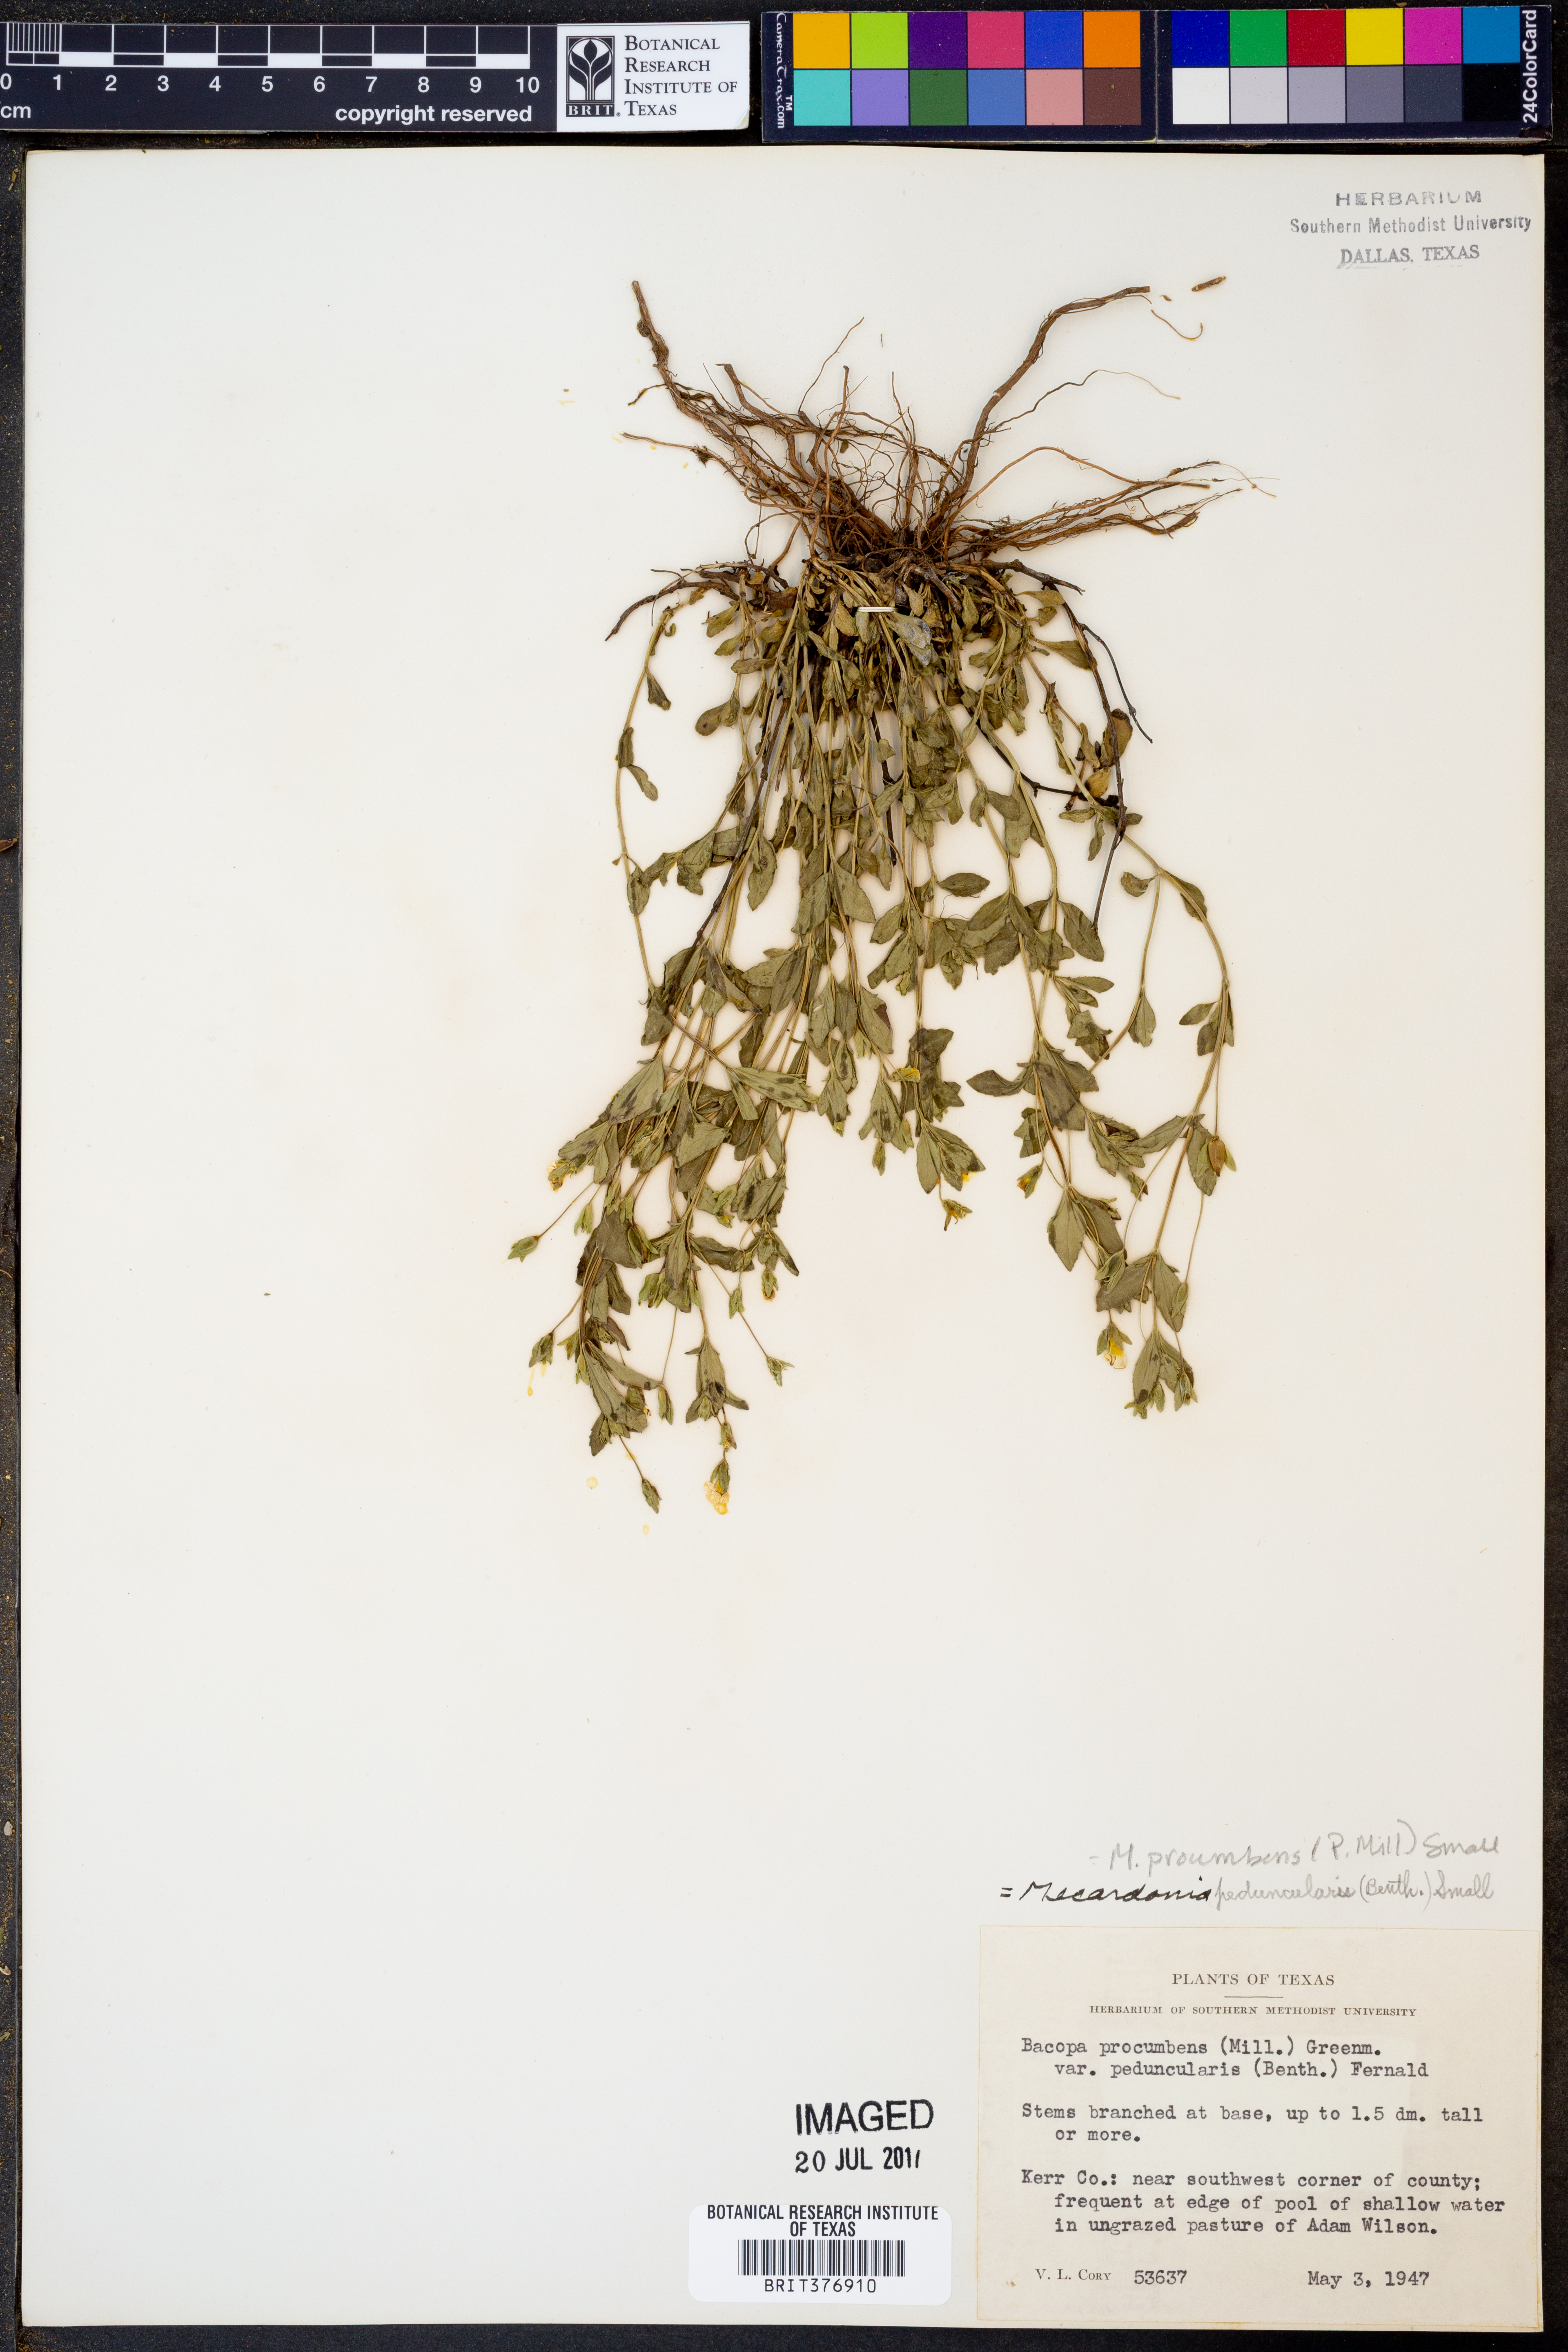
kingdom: Plantae
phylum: Tracheophyta
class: Magnoliopsida
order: Lamiales
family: Plantaginaceae
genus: Mecardonia
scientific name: Mecardonia procumbens
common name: Baby jump-up
